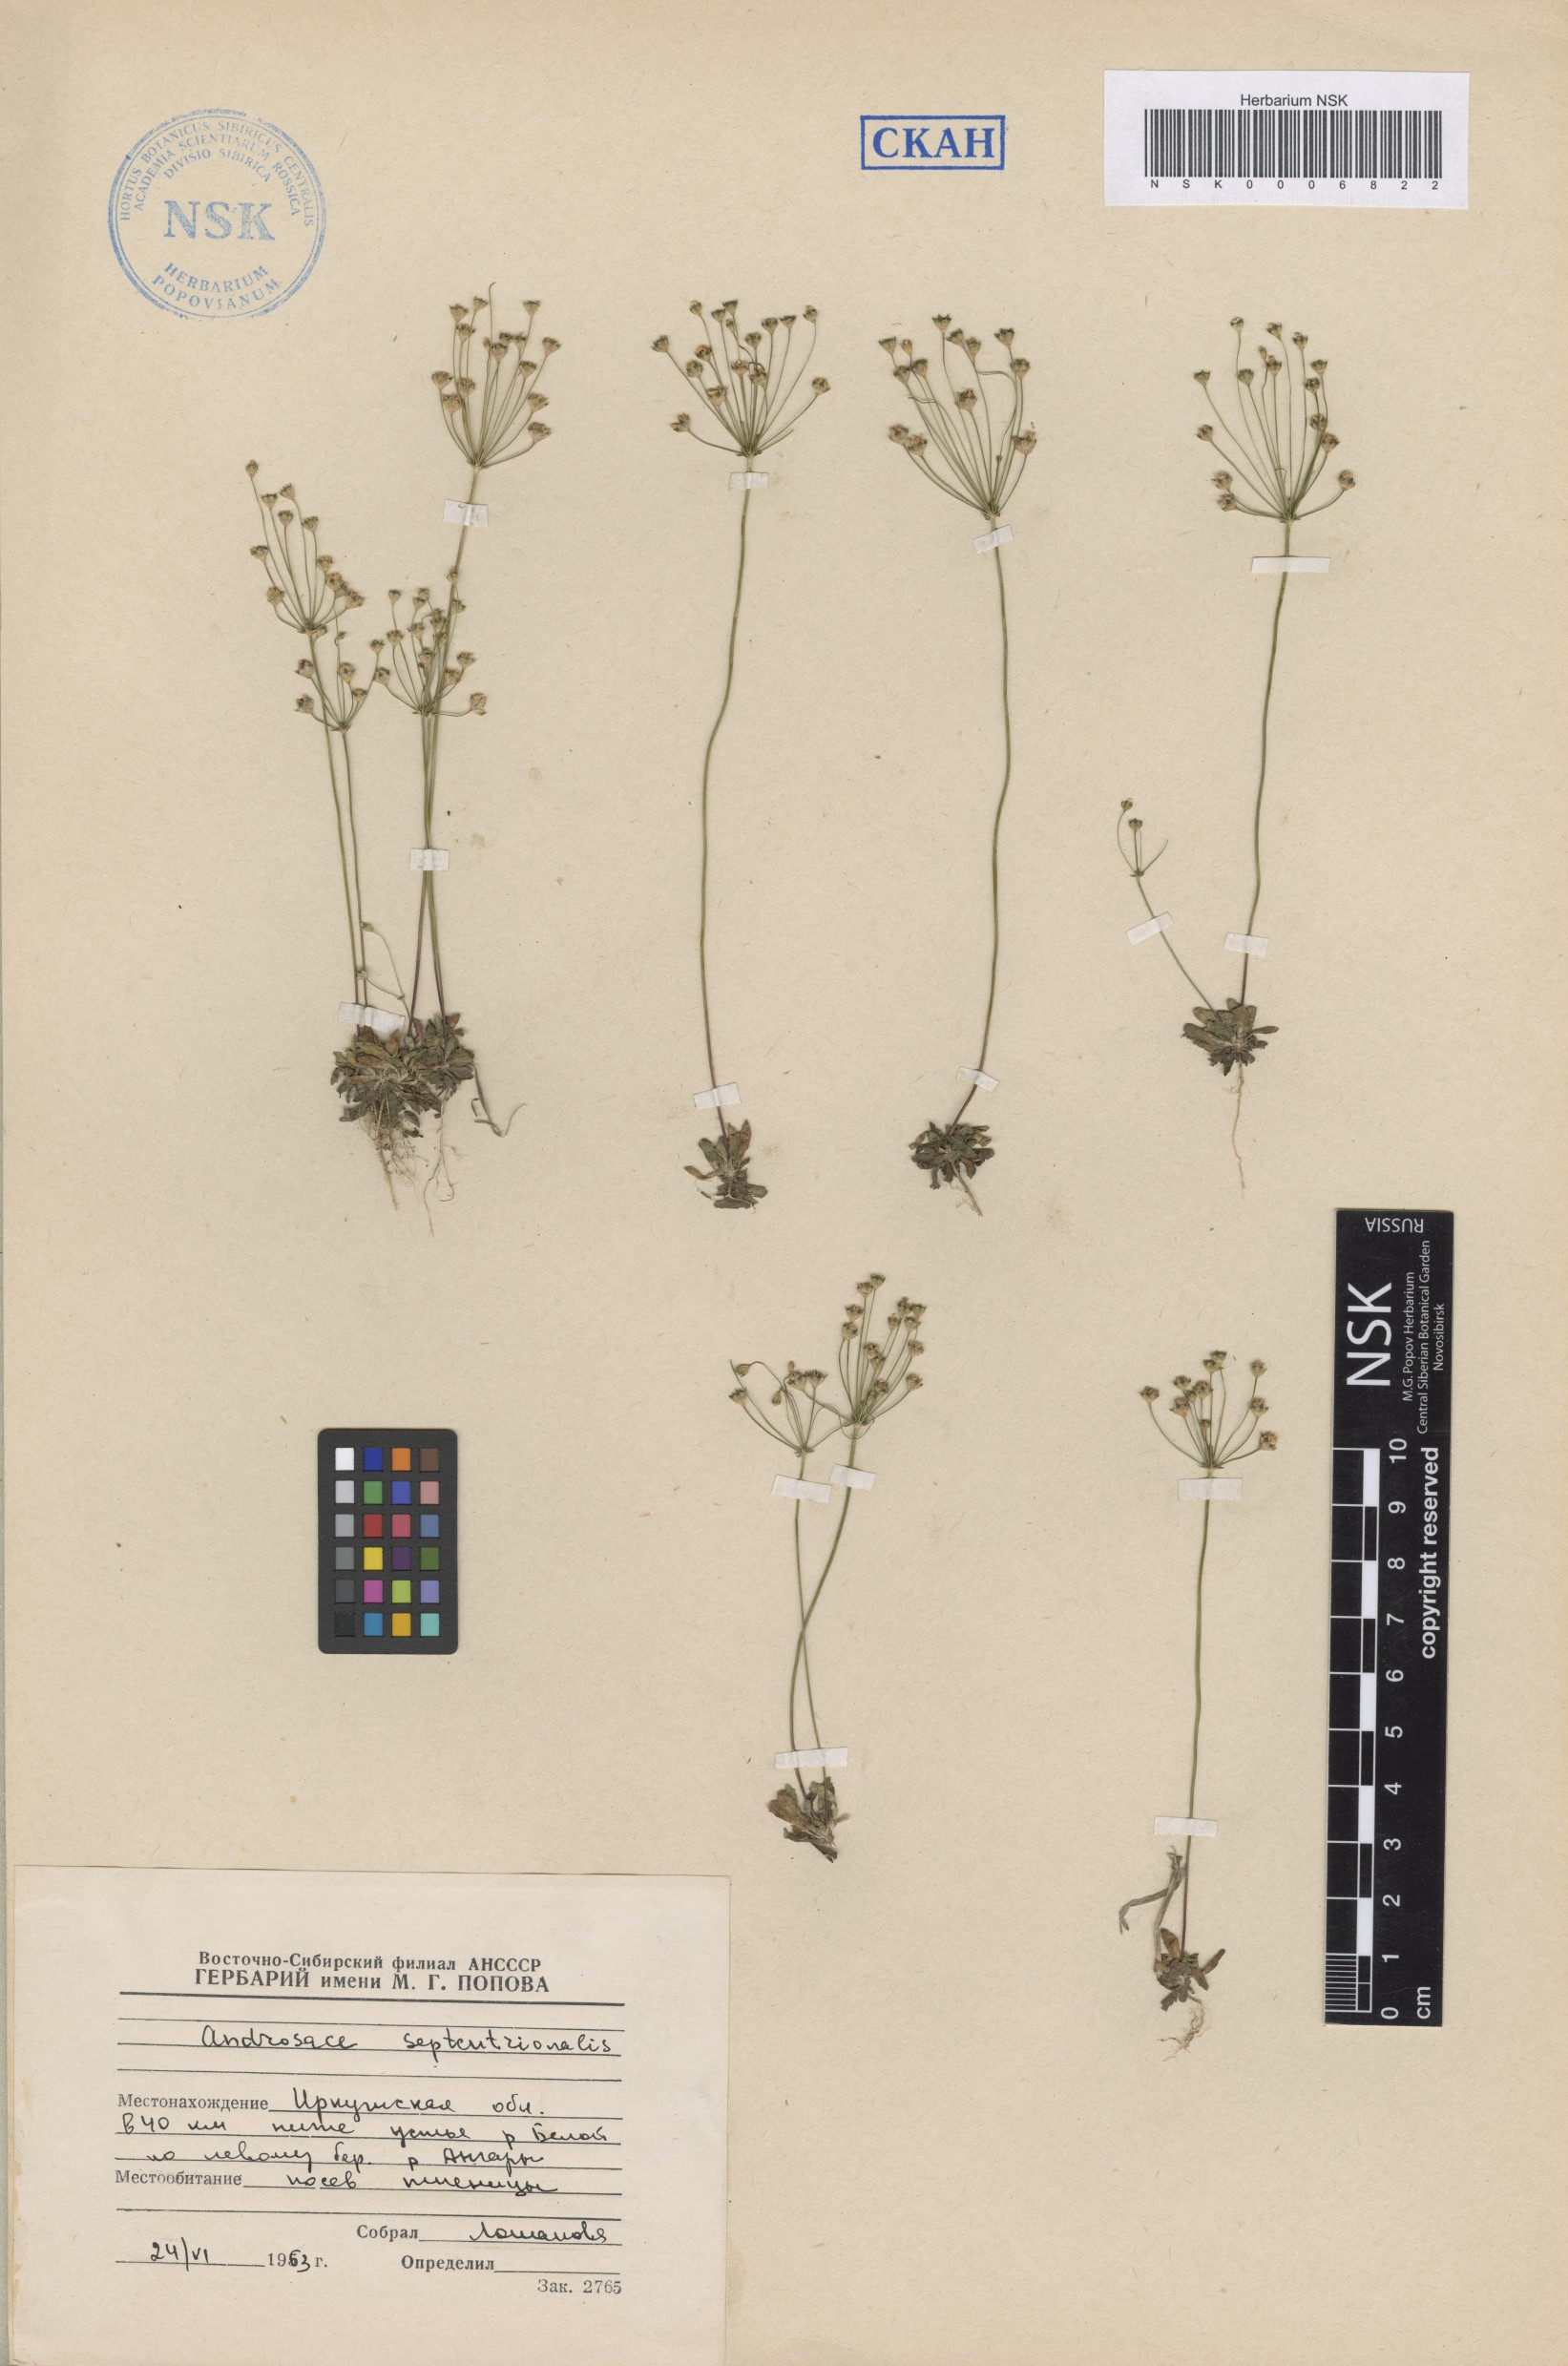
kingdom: Plantae
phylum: Tracheophyta
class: Magnoliopsida
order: Ericales
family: Primulaceae
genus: Androsace
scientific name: Androsace septentrionalis
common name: Hairy northern fairy-candelabra
